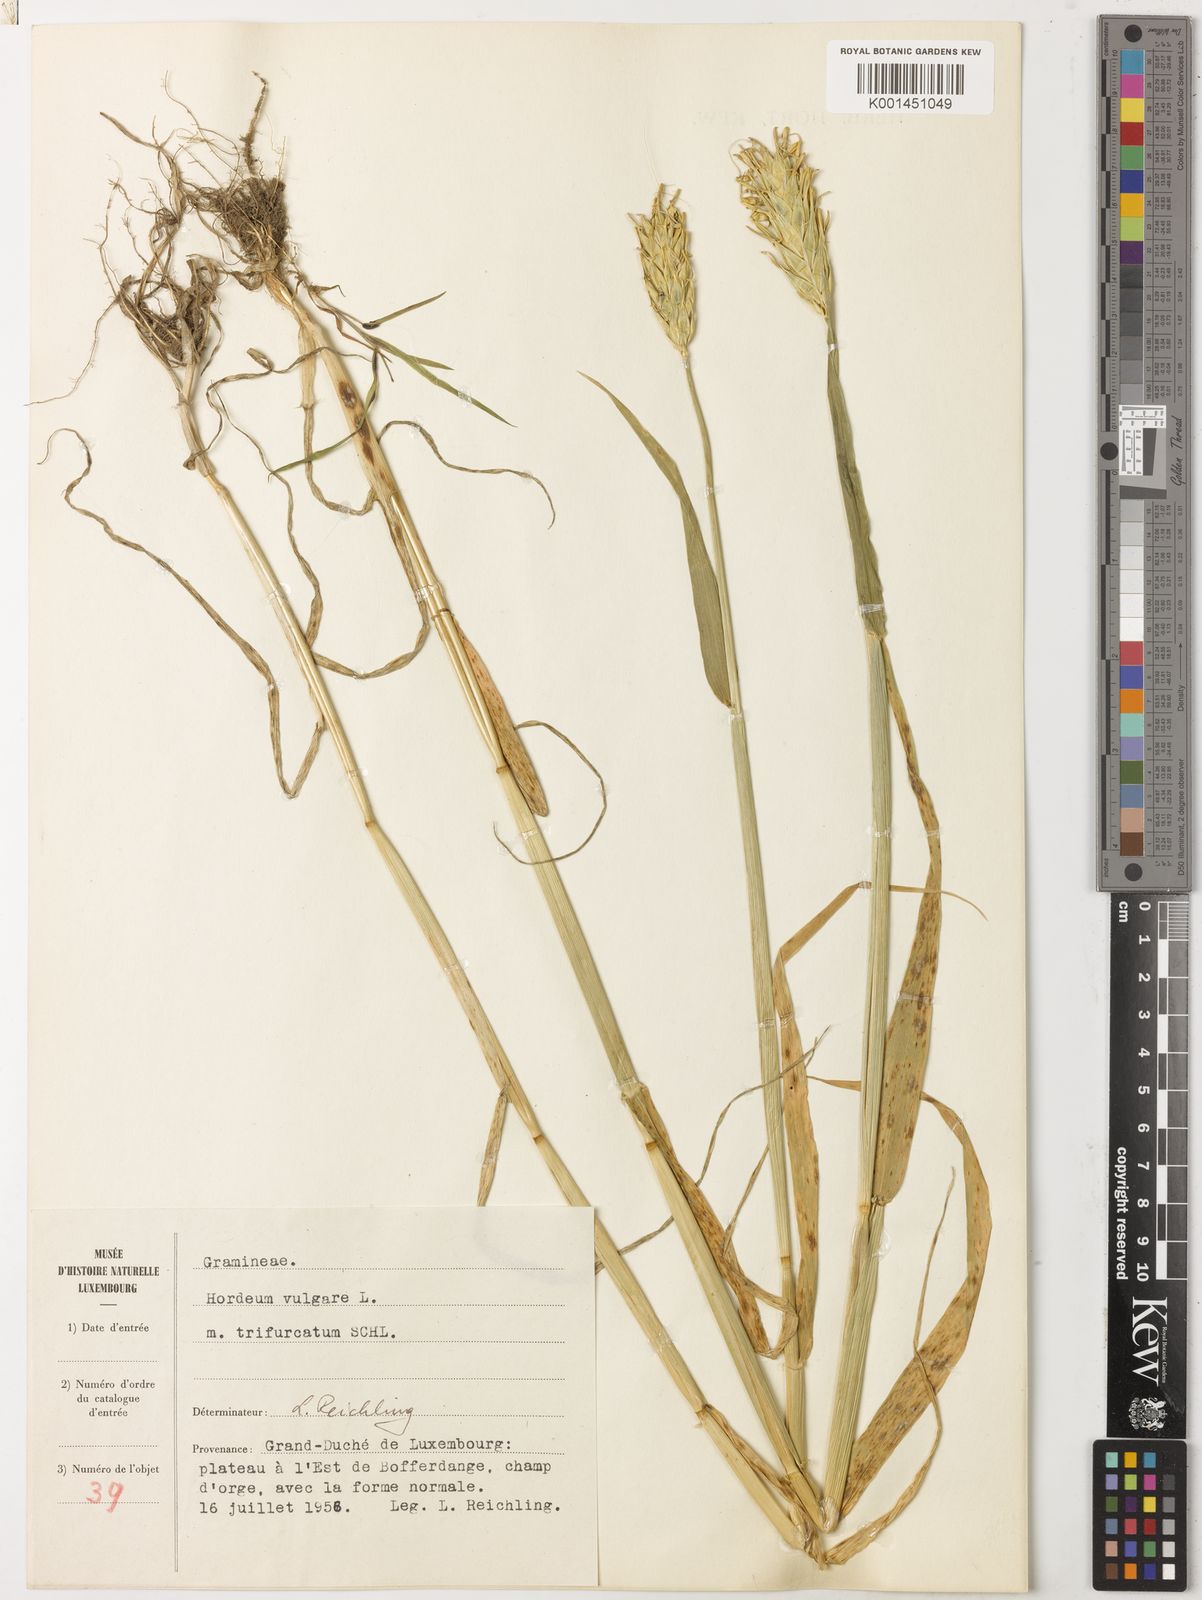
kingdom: Plantae
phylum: Tracheophyta
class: Liliopsida
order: Poales
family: Poaceae
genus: Hordeum
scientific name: Hordeum vulgare
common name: Common barley
